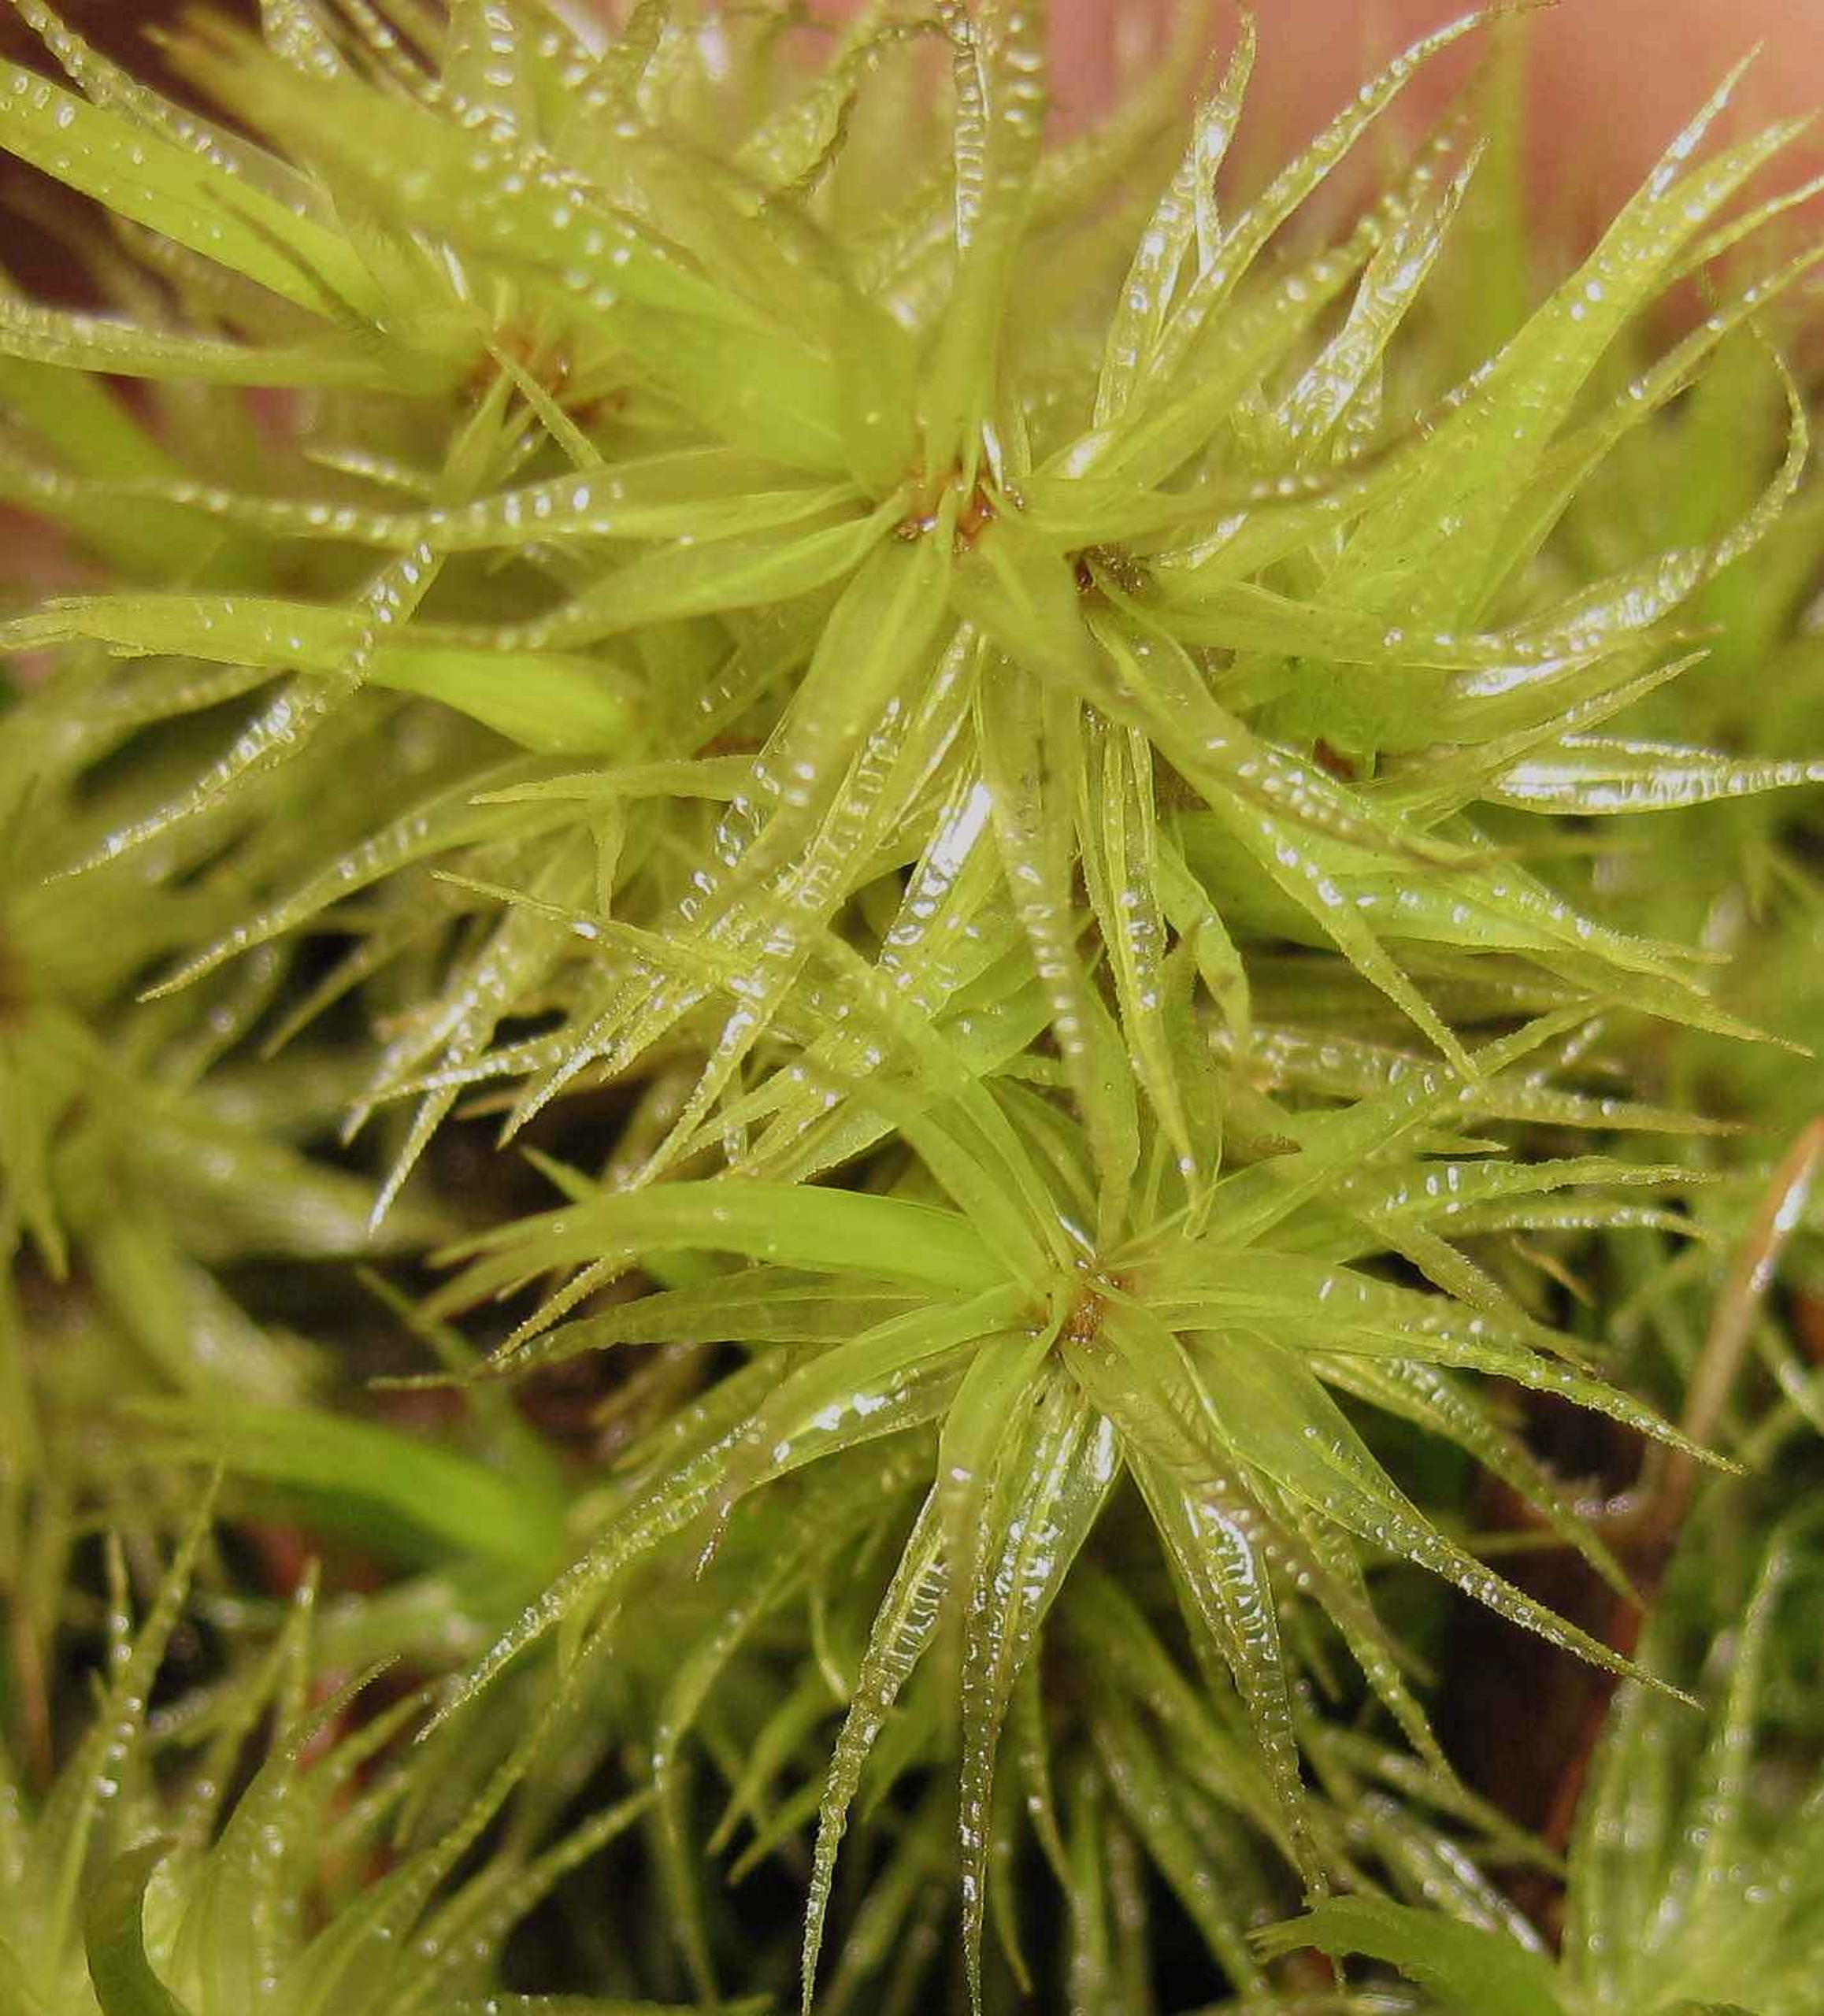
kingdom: Plantae
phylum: Bryophyta
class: Bryopsida
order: Dicranales
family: Dicranaceae
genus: Dicranum
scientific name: Dicranum polysetum
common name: Bølgebladet kløvtand
